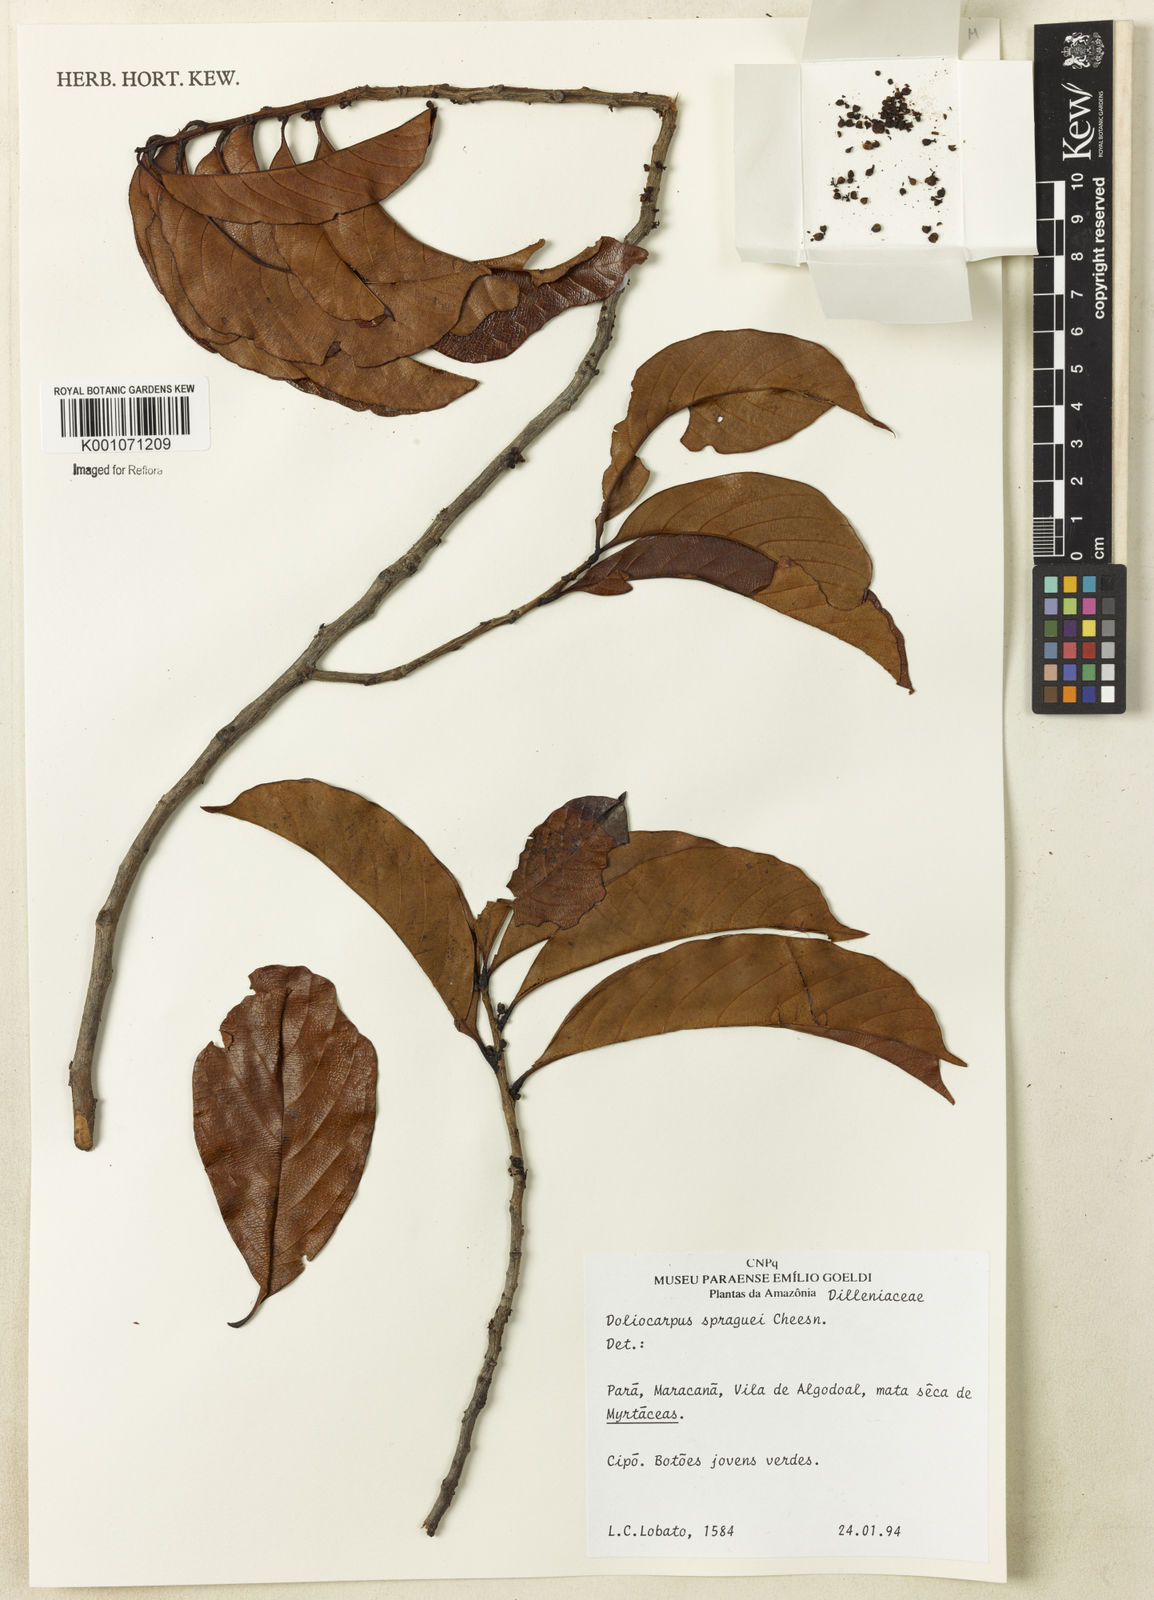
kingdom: Plantae
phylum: Tracheophyta
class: Magnoliopsida
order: Dilleniales
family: Dilleniaceae
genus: Doliocarpus
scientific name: Doliocarpus spraguei
